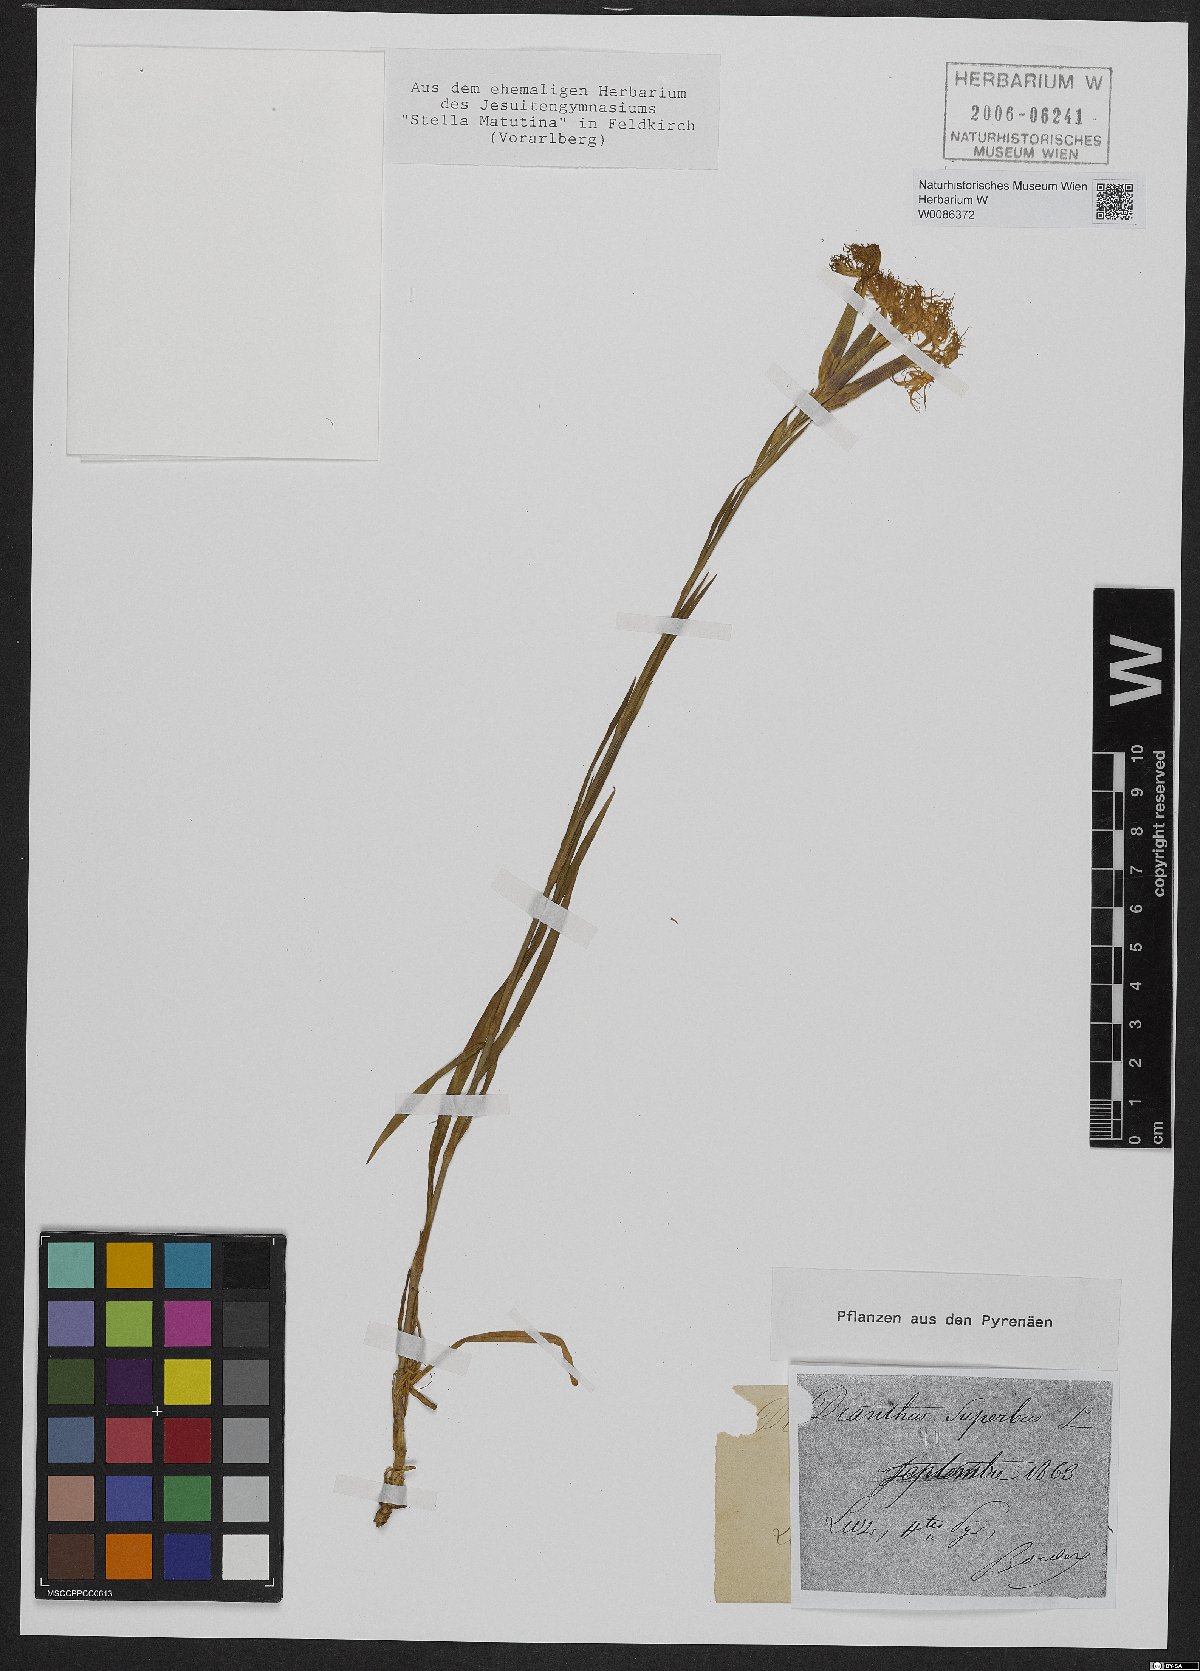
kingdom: Plantae
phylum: Tracheophyta
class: Magnoliopsida
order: Caryophyllales
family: Caryophyllaceae
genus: Dianthus
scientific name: Dianthus superbus
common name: Fringed pink
